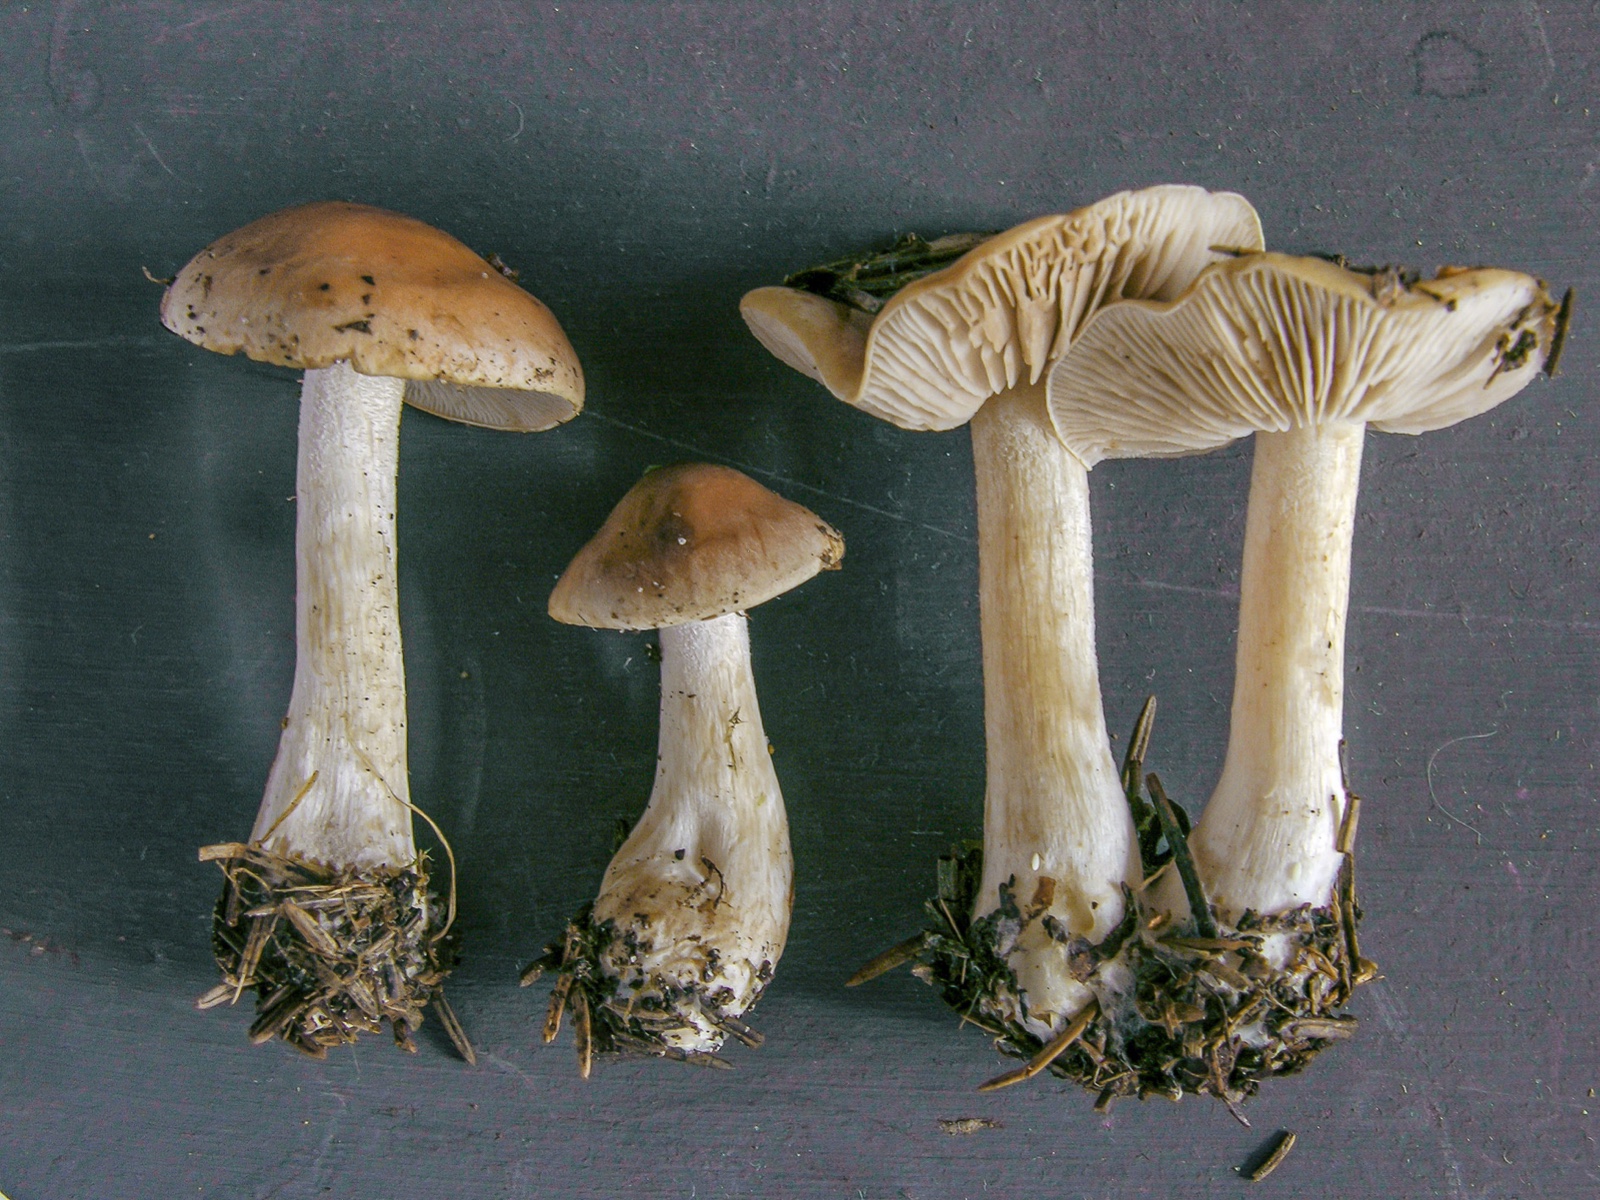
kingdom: Fungi
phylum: Basidiomycota
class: Agaricomycetes
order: Agaricales
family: Hymenogastraceae
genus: Hebeloma
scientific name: Hebeloma leucosarx
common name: Birch poisonpie
